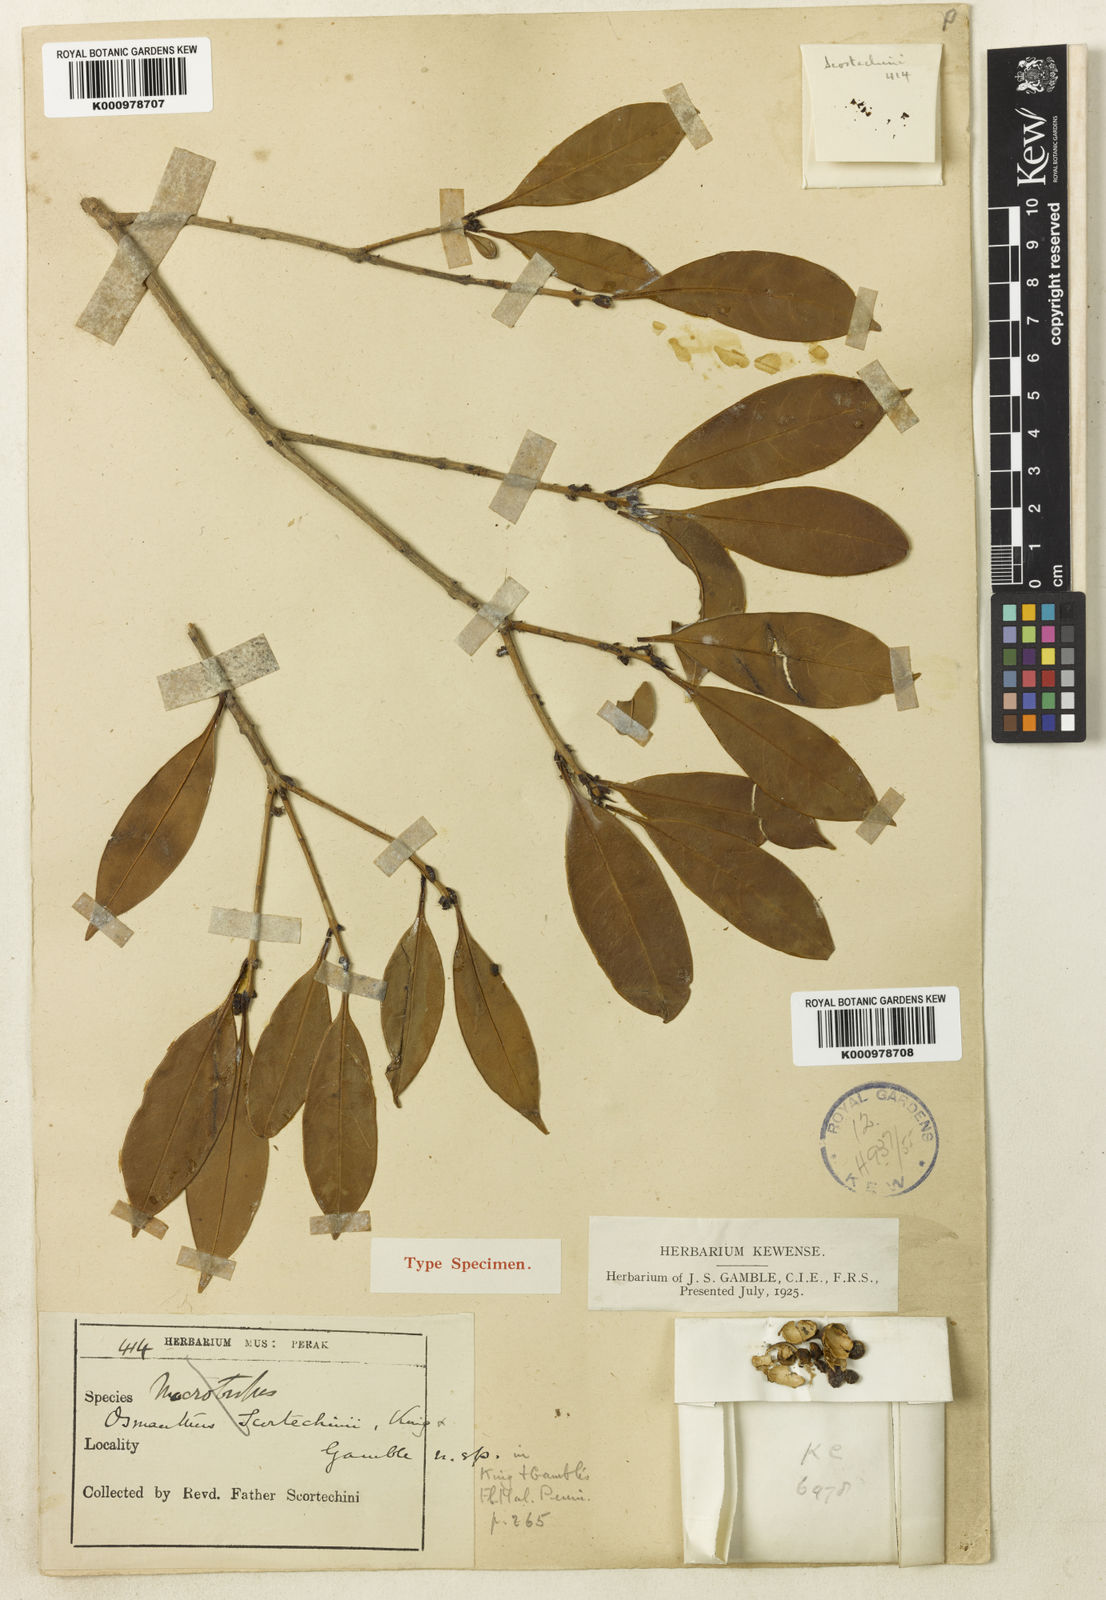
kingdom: Plantae
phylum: Tracheophyta
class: Magnoliopsida
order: Lamiales
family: Oleaceae
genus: Cartrema
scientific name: Cartrema scortechinii
